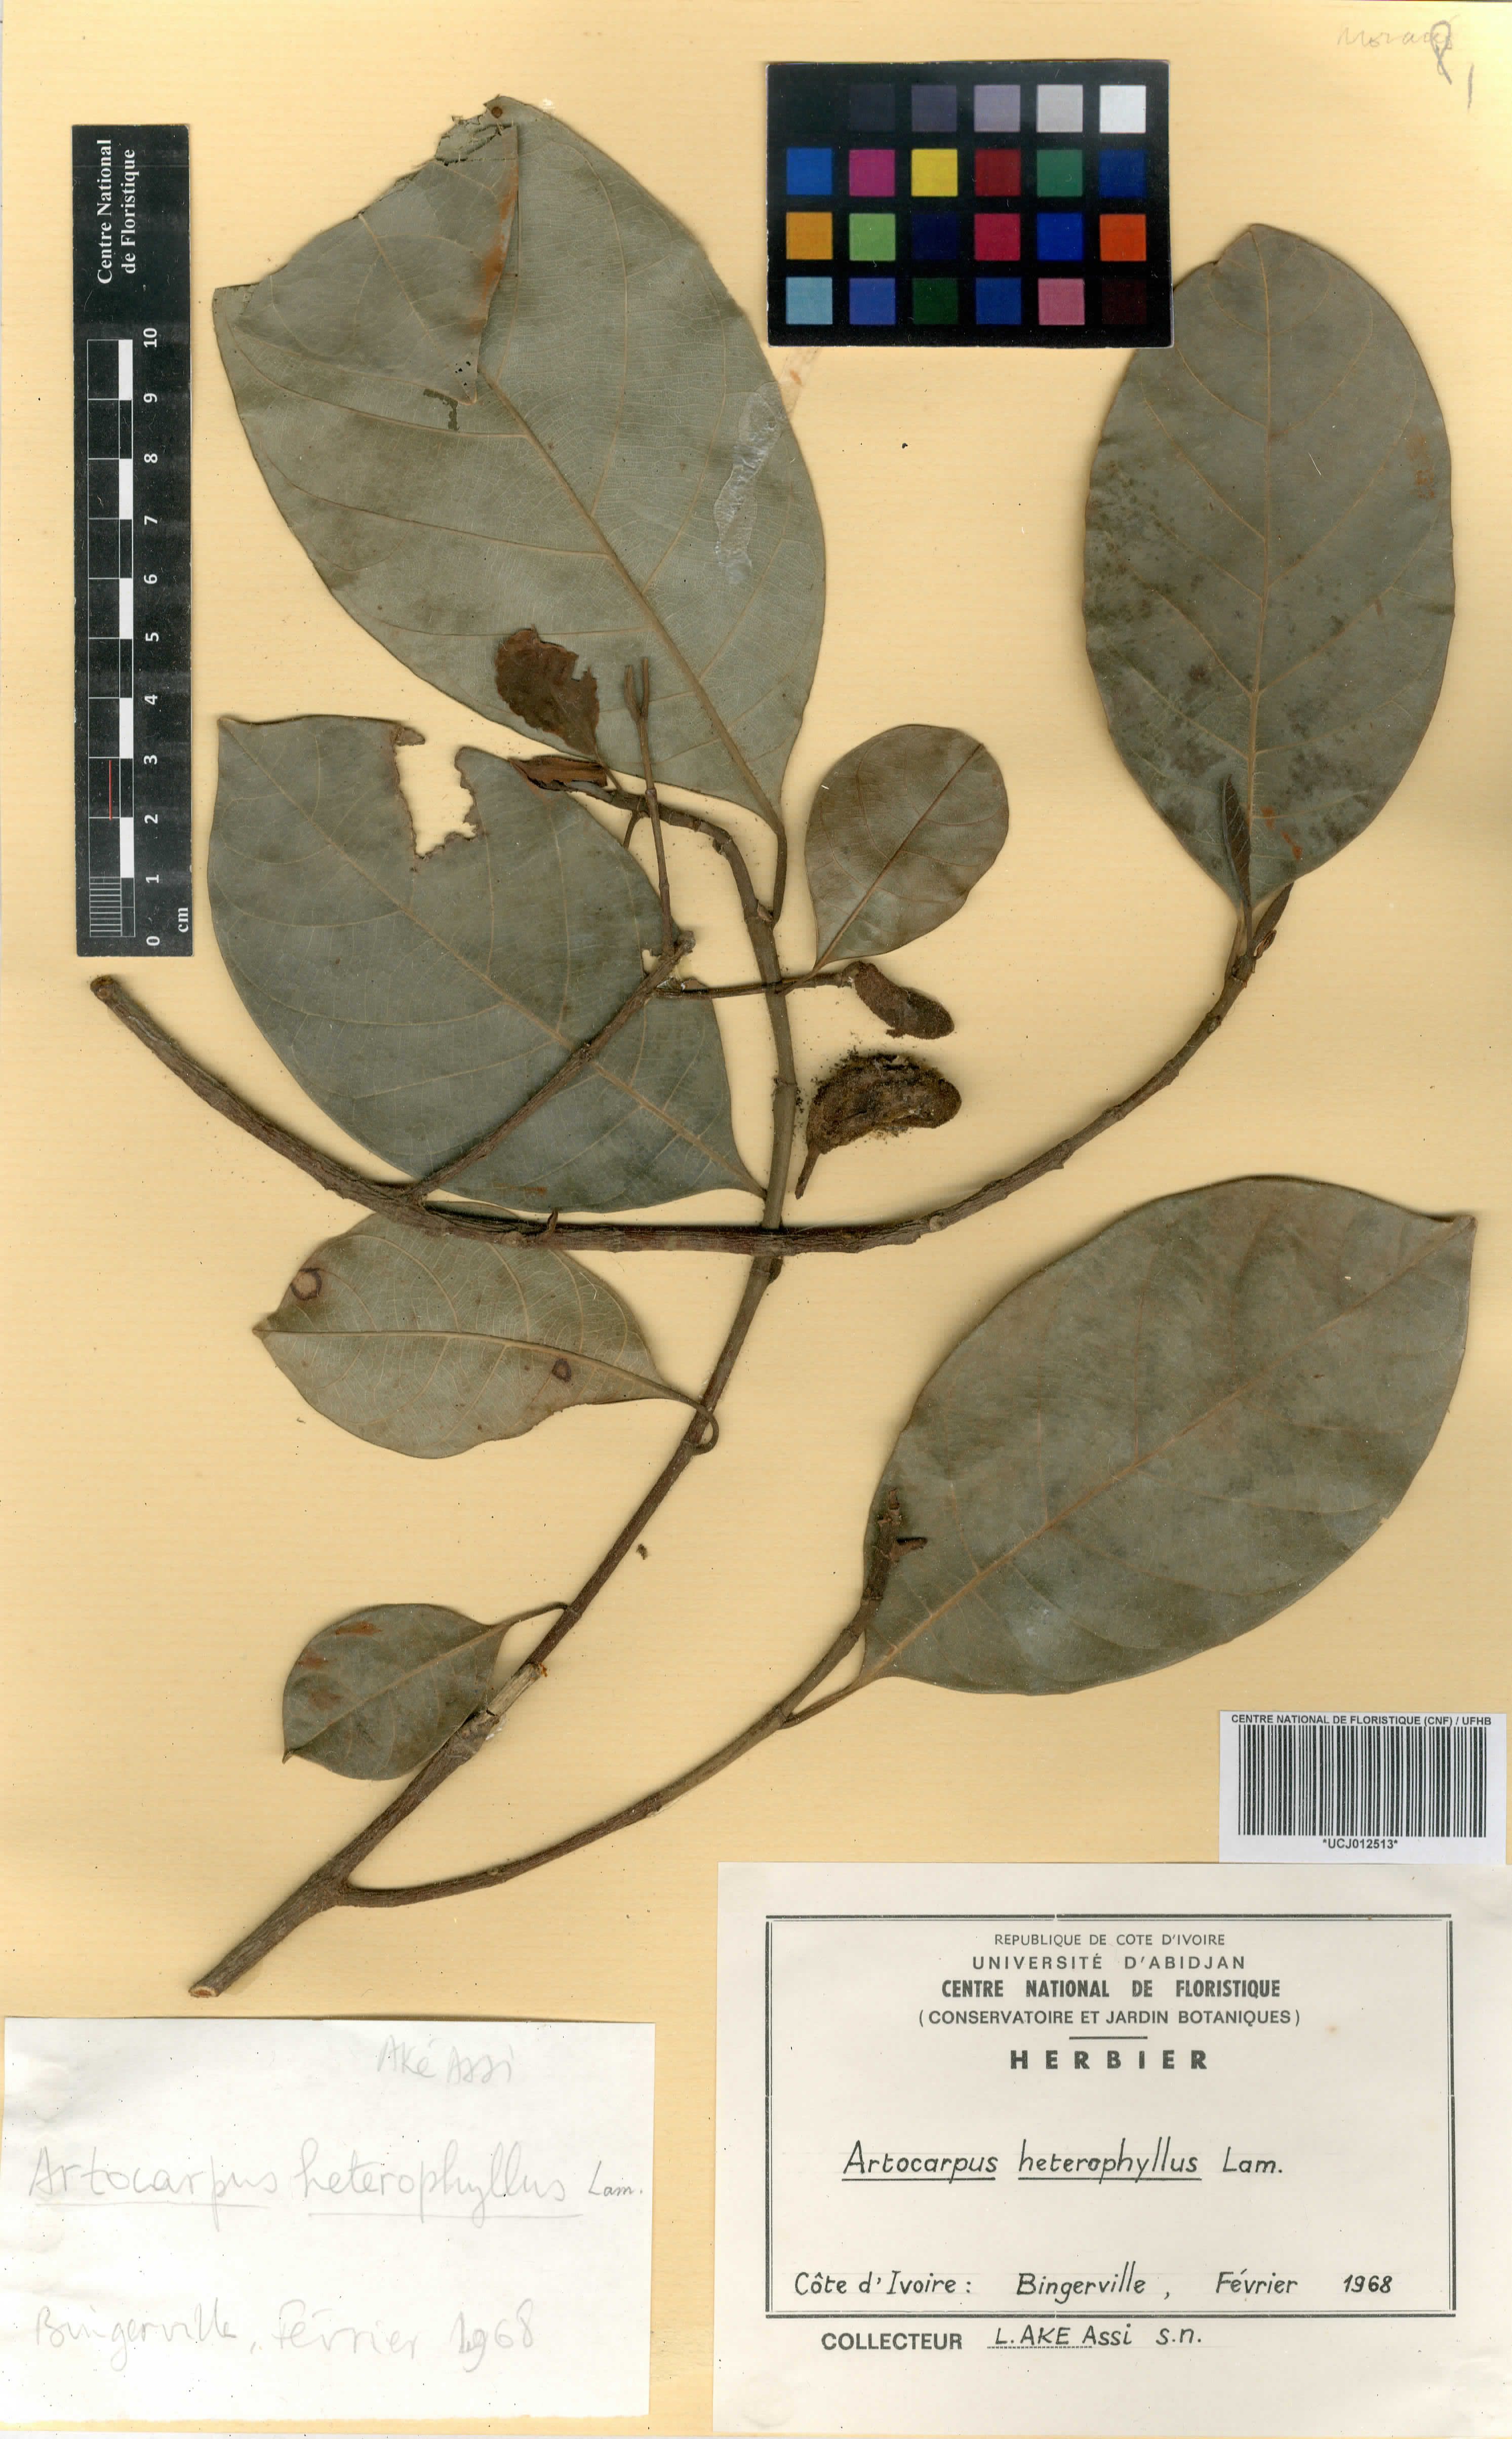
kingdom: Plantae
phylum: Tracheophyta
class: Magnoliopsida
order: Rosales
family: Moraceae
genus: Artocarpus
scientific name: Artocarpus heterophyllus
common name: Jackfruit
